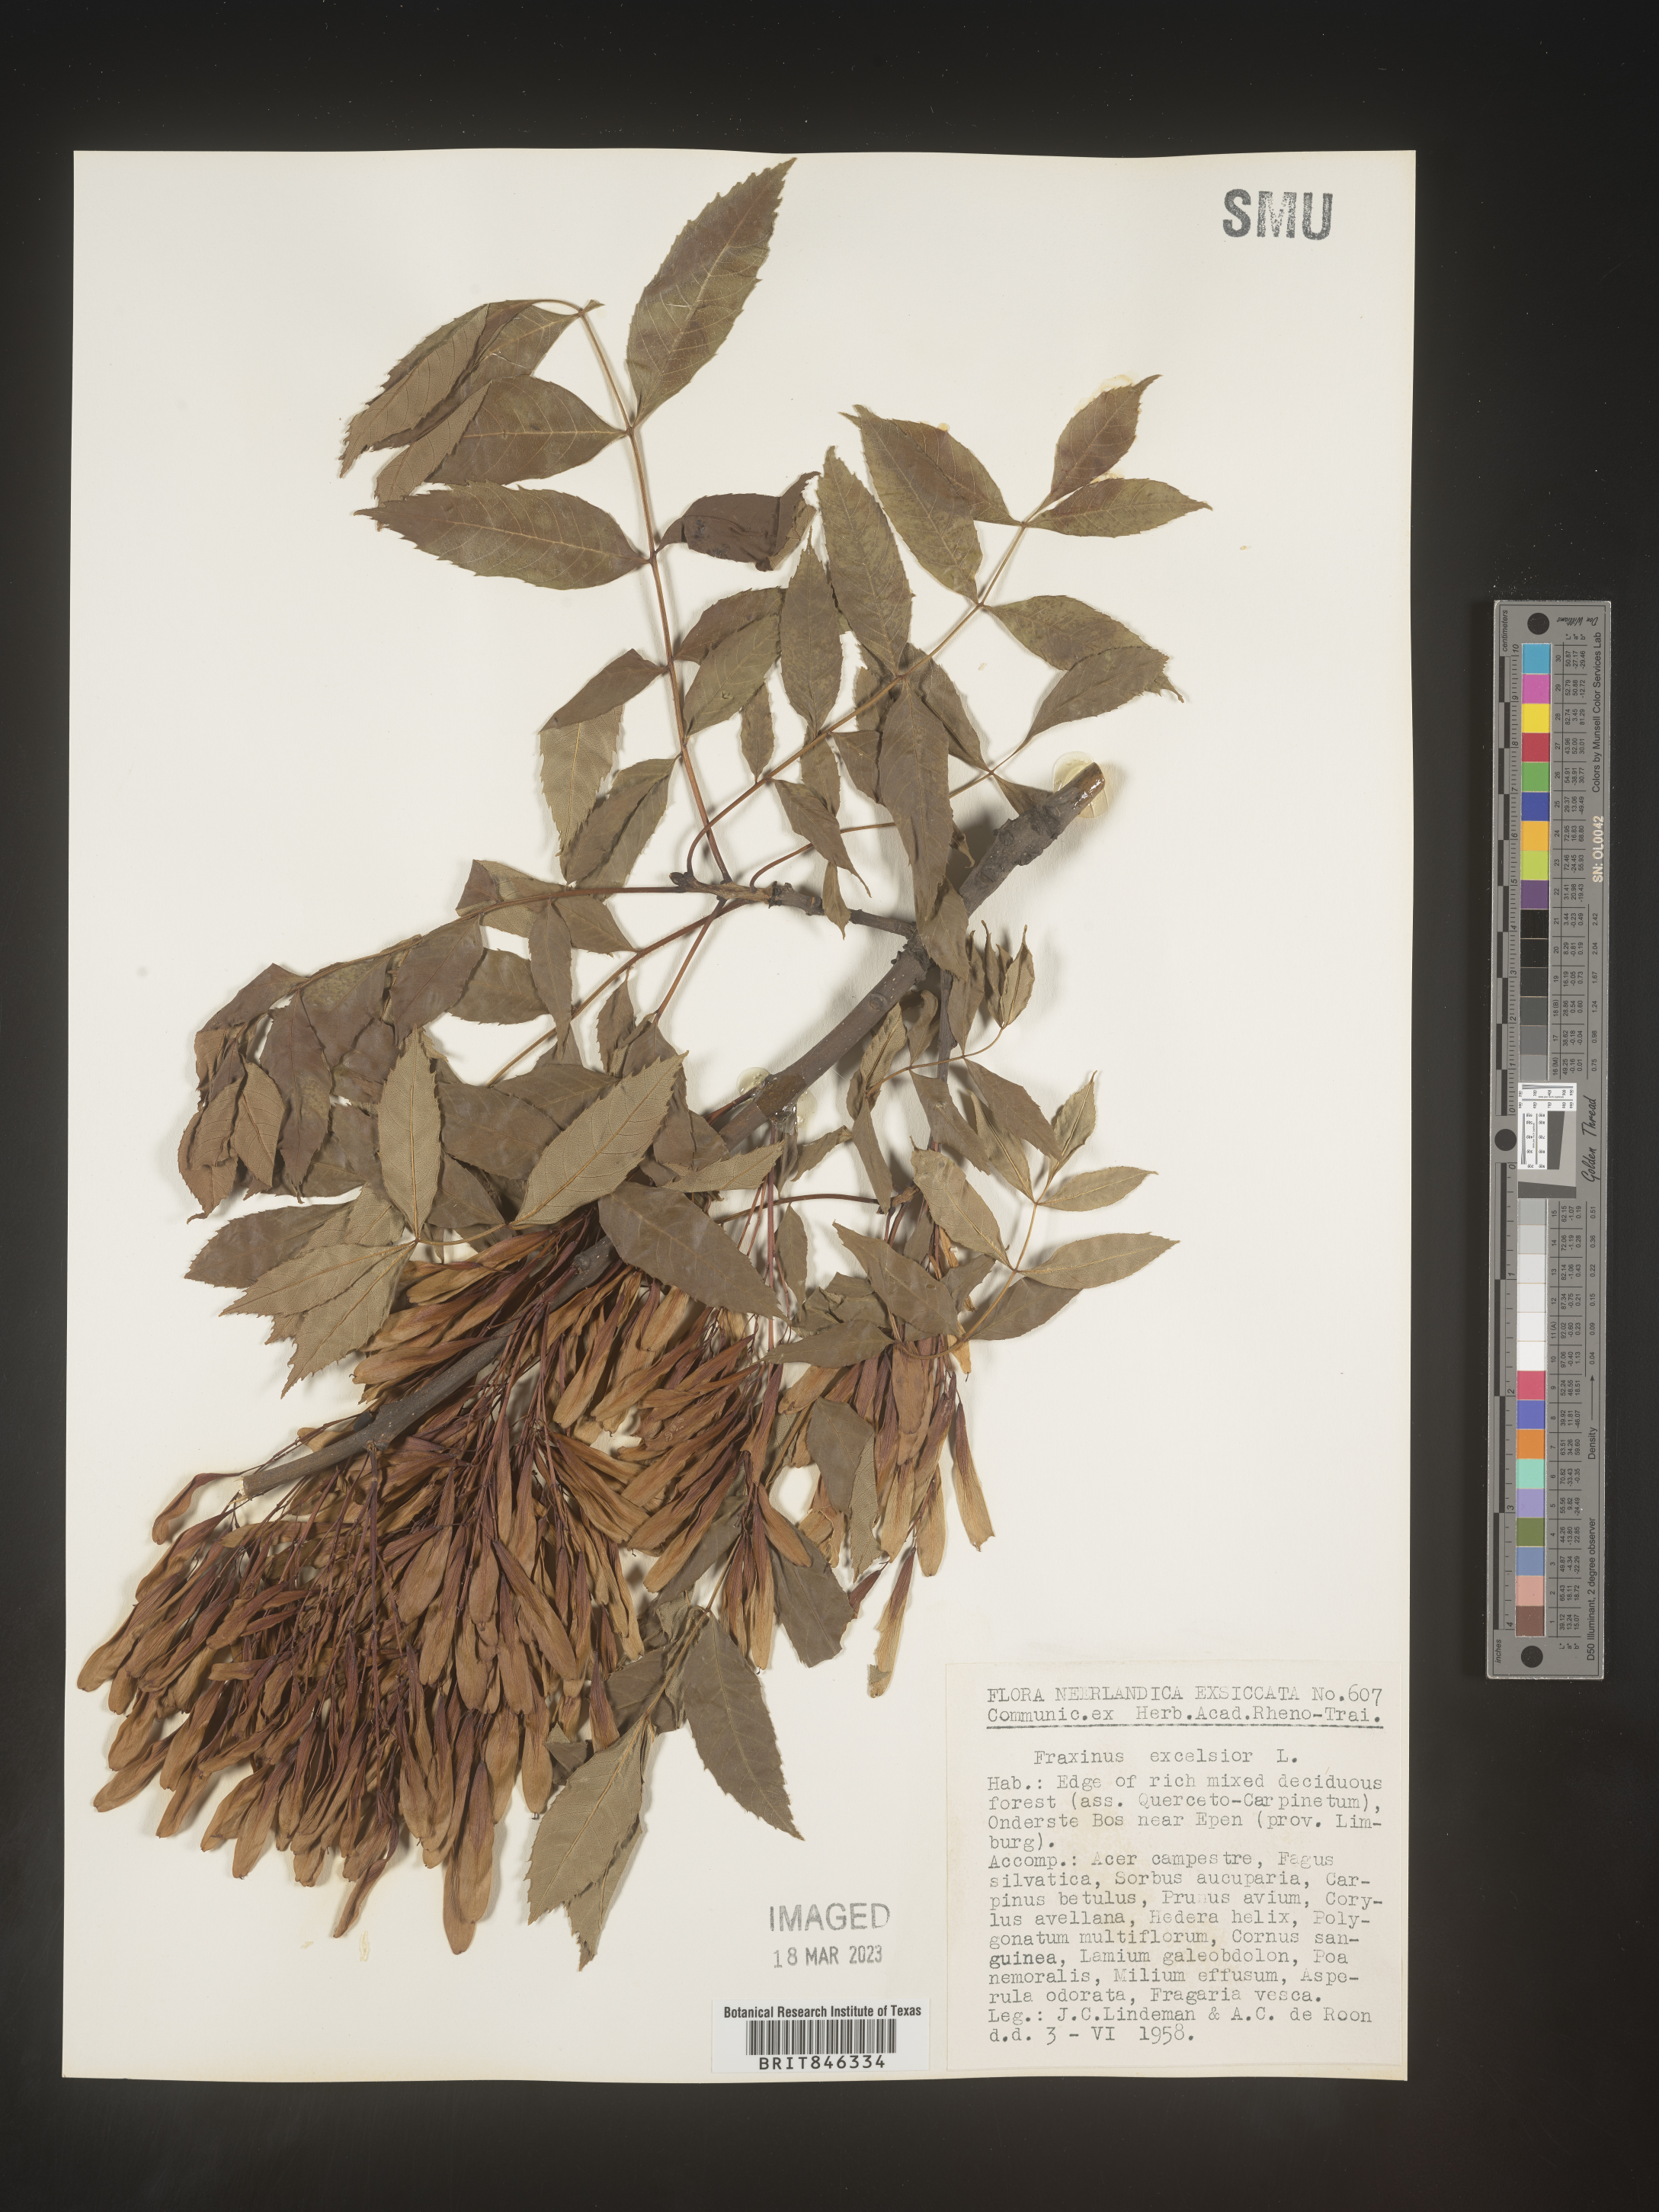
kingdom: Plantae
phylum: Tracheophyta
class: Magnoliopsida
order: Lamiales
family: Oleaceae
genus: Fraxinus
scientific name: Fraxinus
